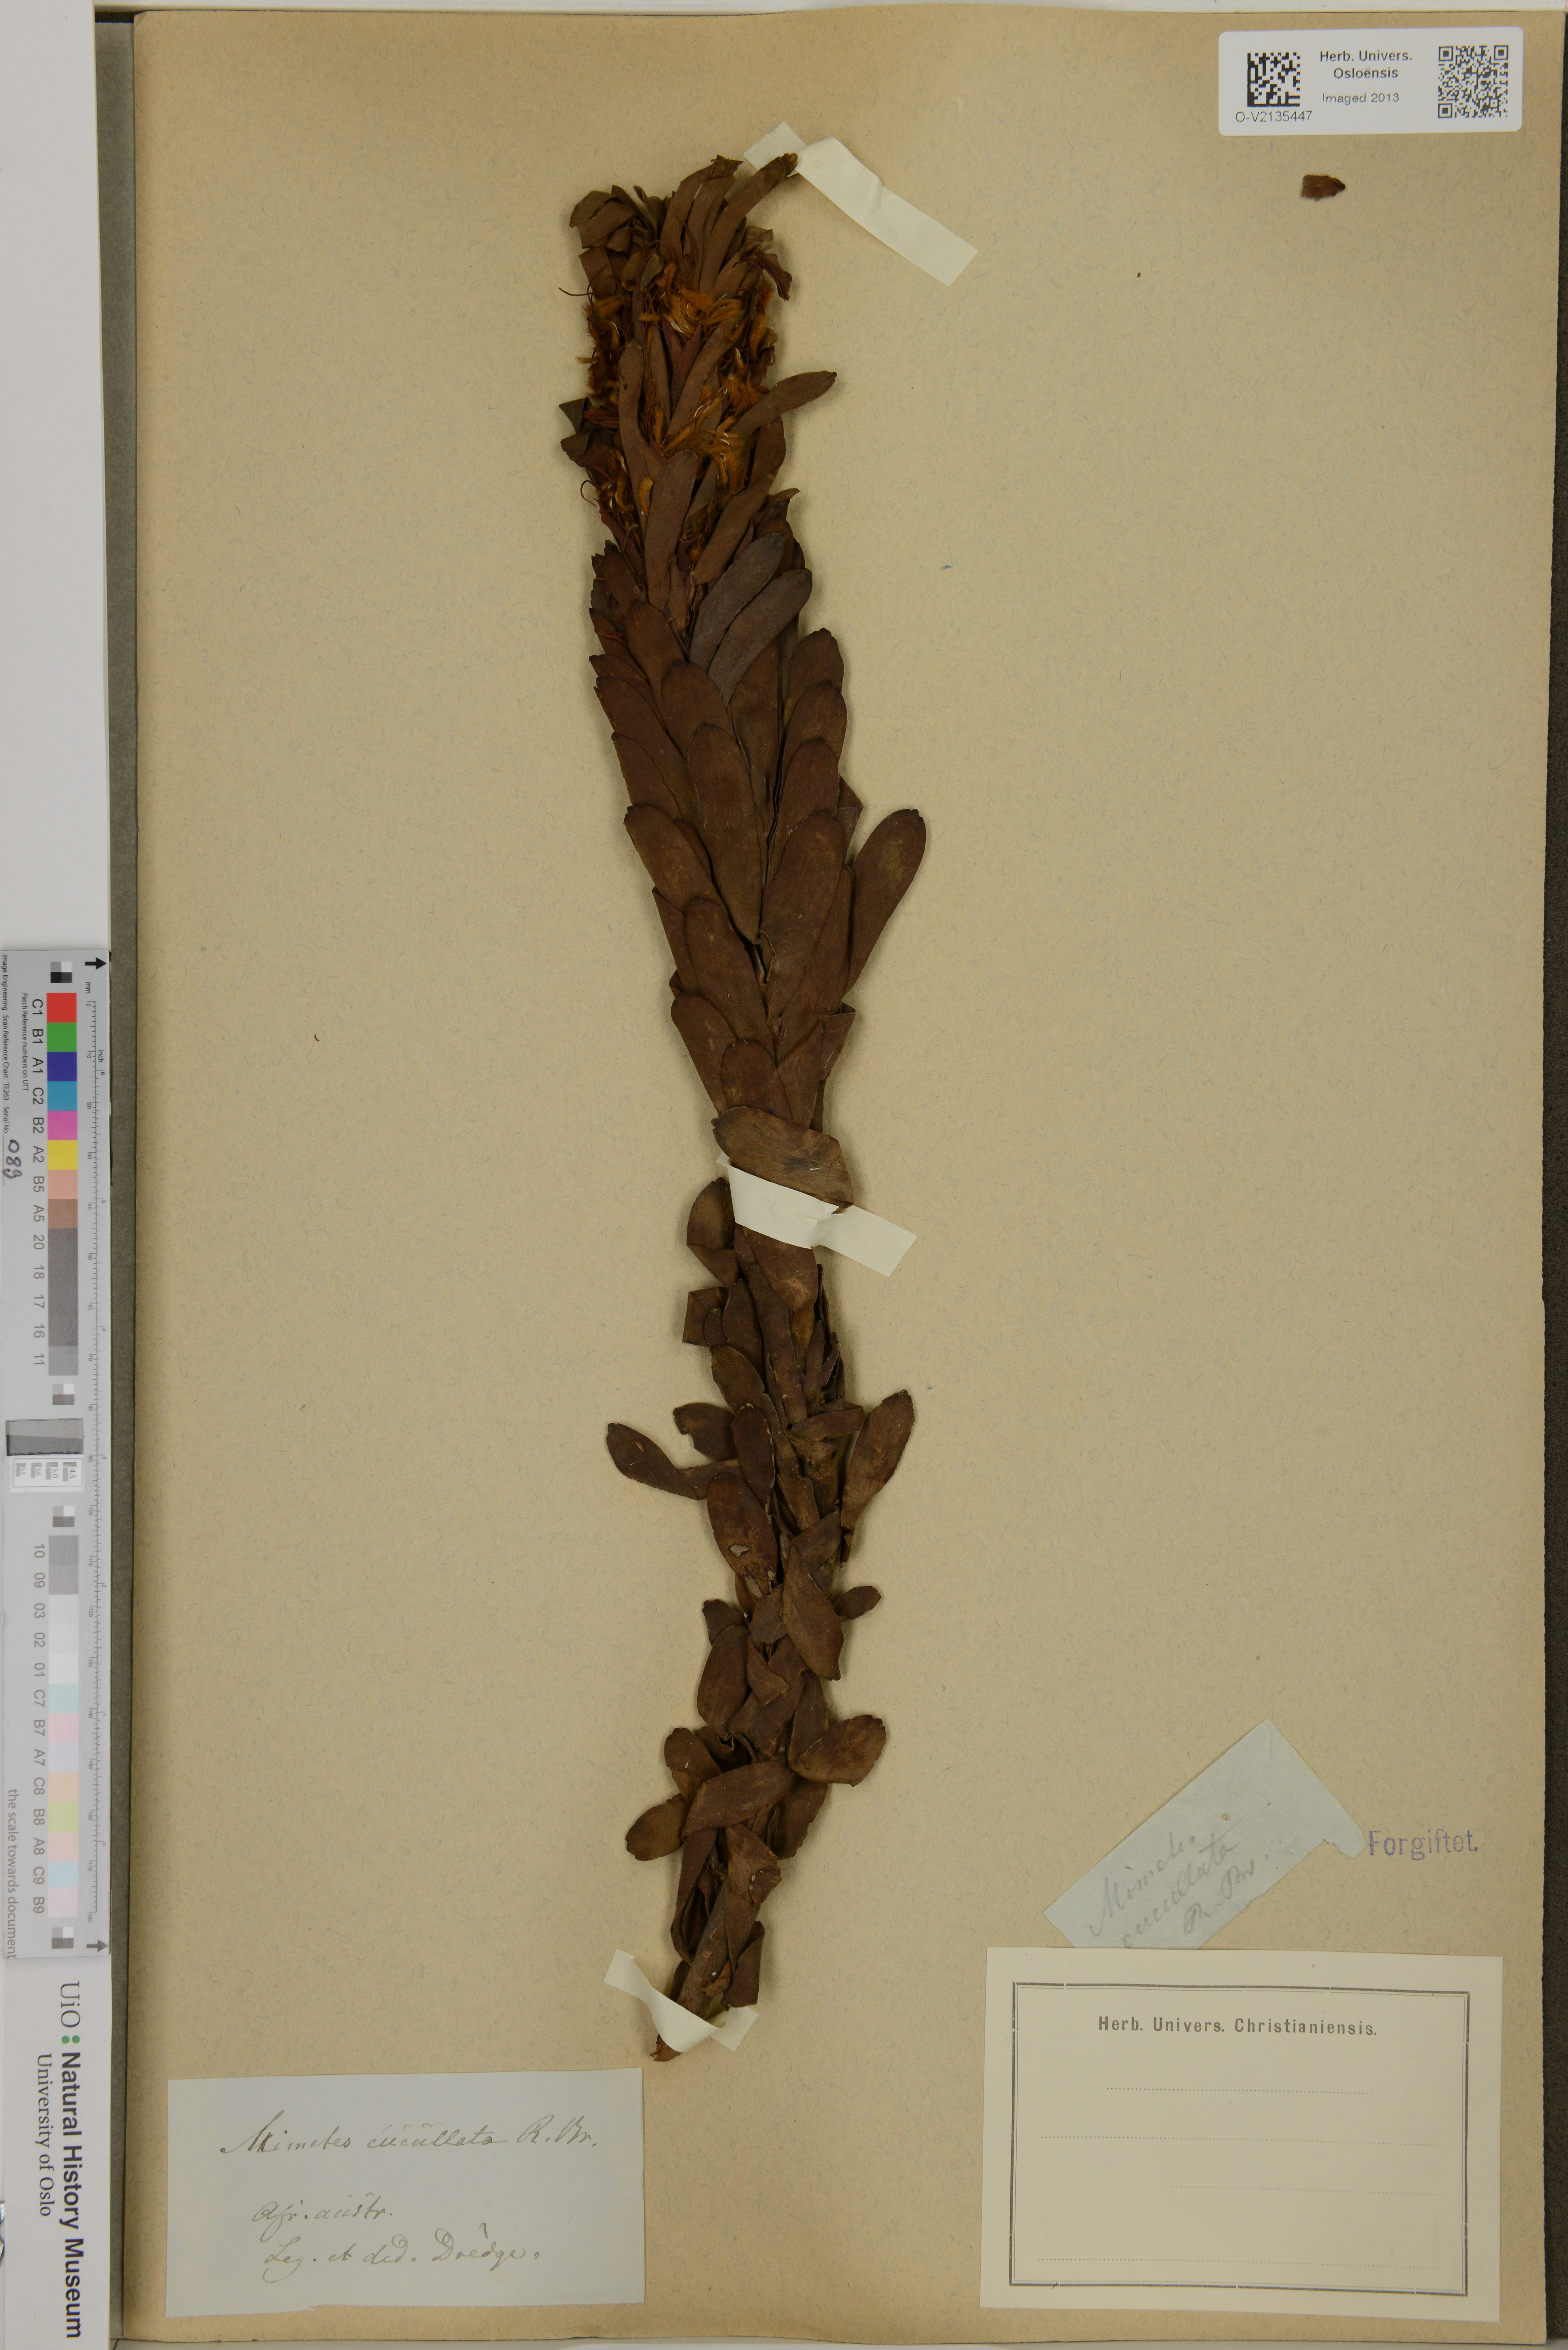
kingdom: Plantae
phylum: Tracheophyta
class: Magnoliopsida
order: Proteales
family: Proteaceae
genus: Mimetes
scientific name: Mimetes cucullatus
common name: Common pagoda
